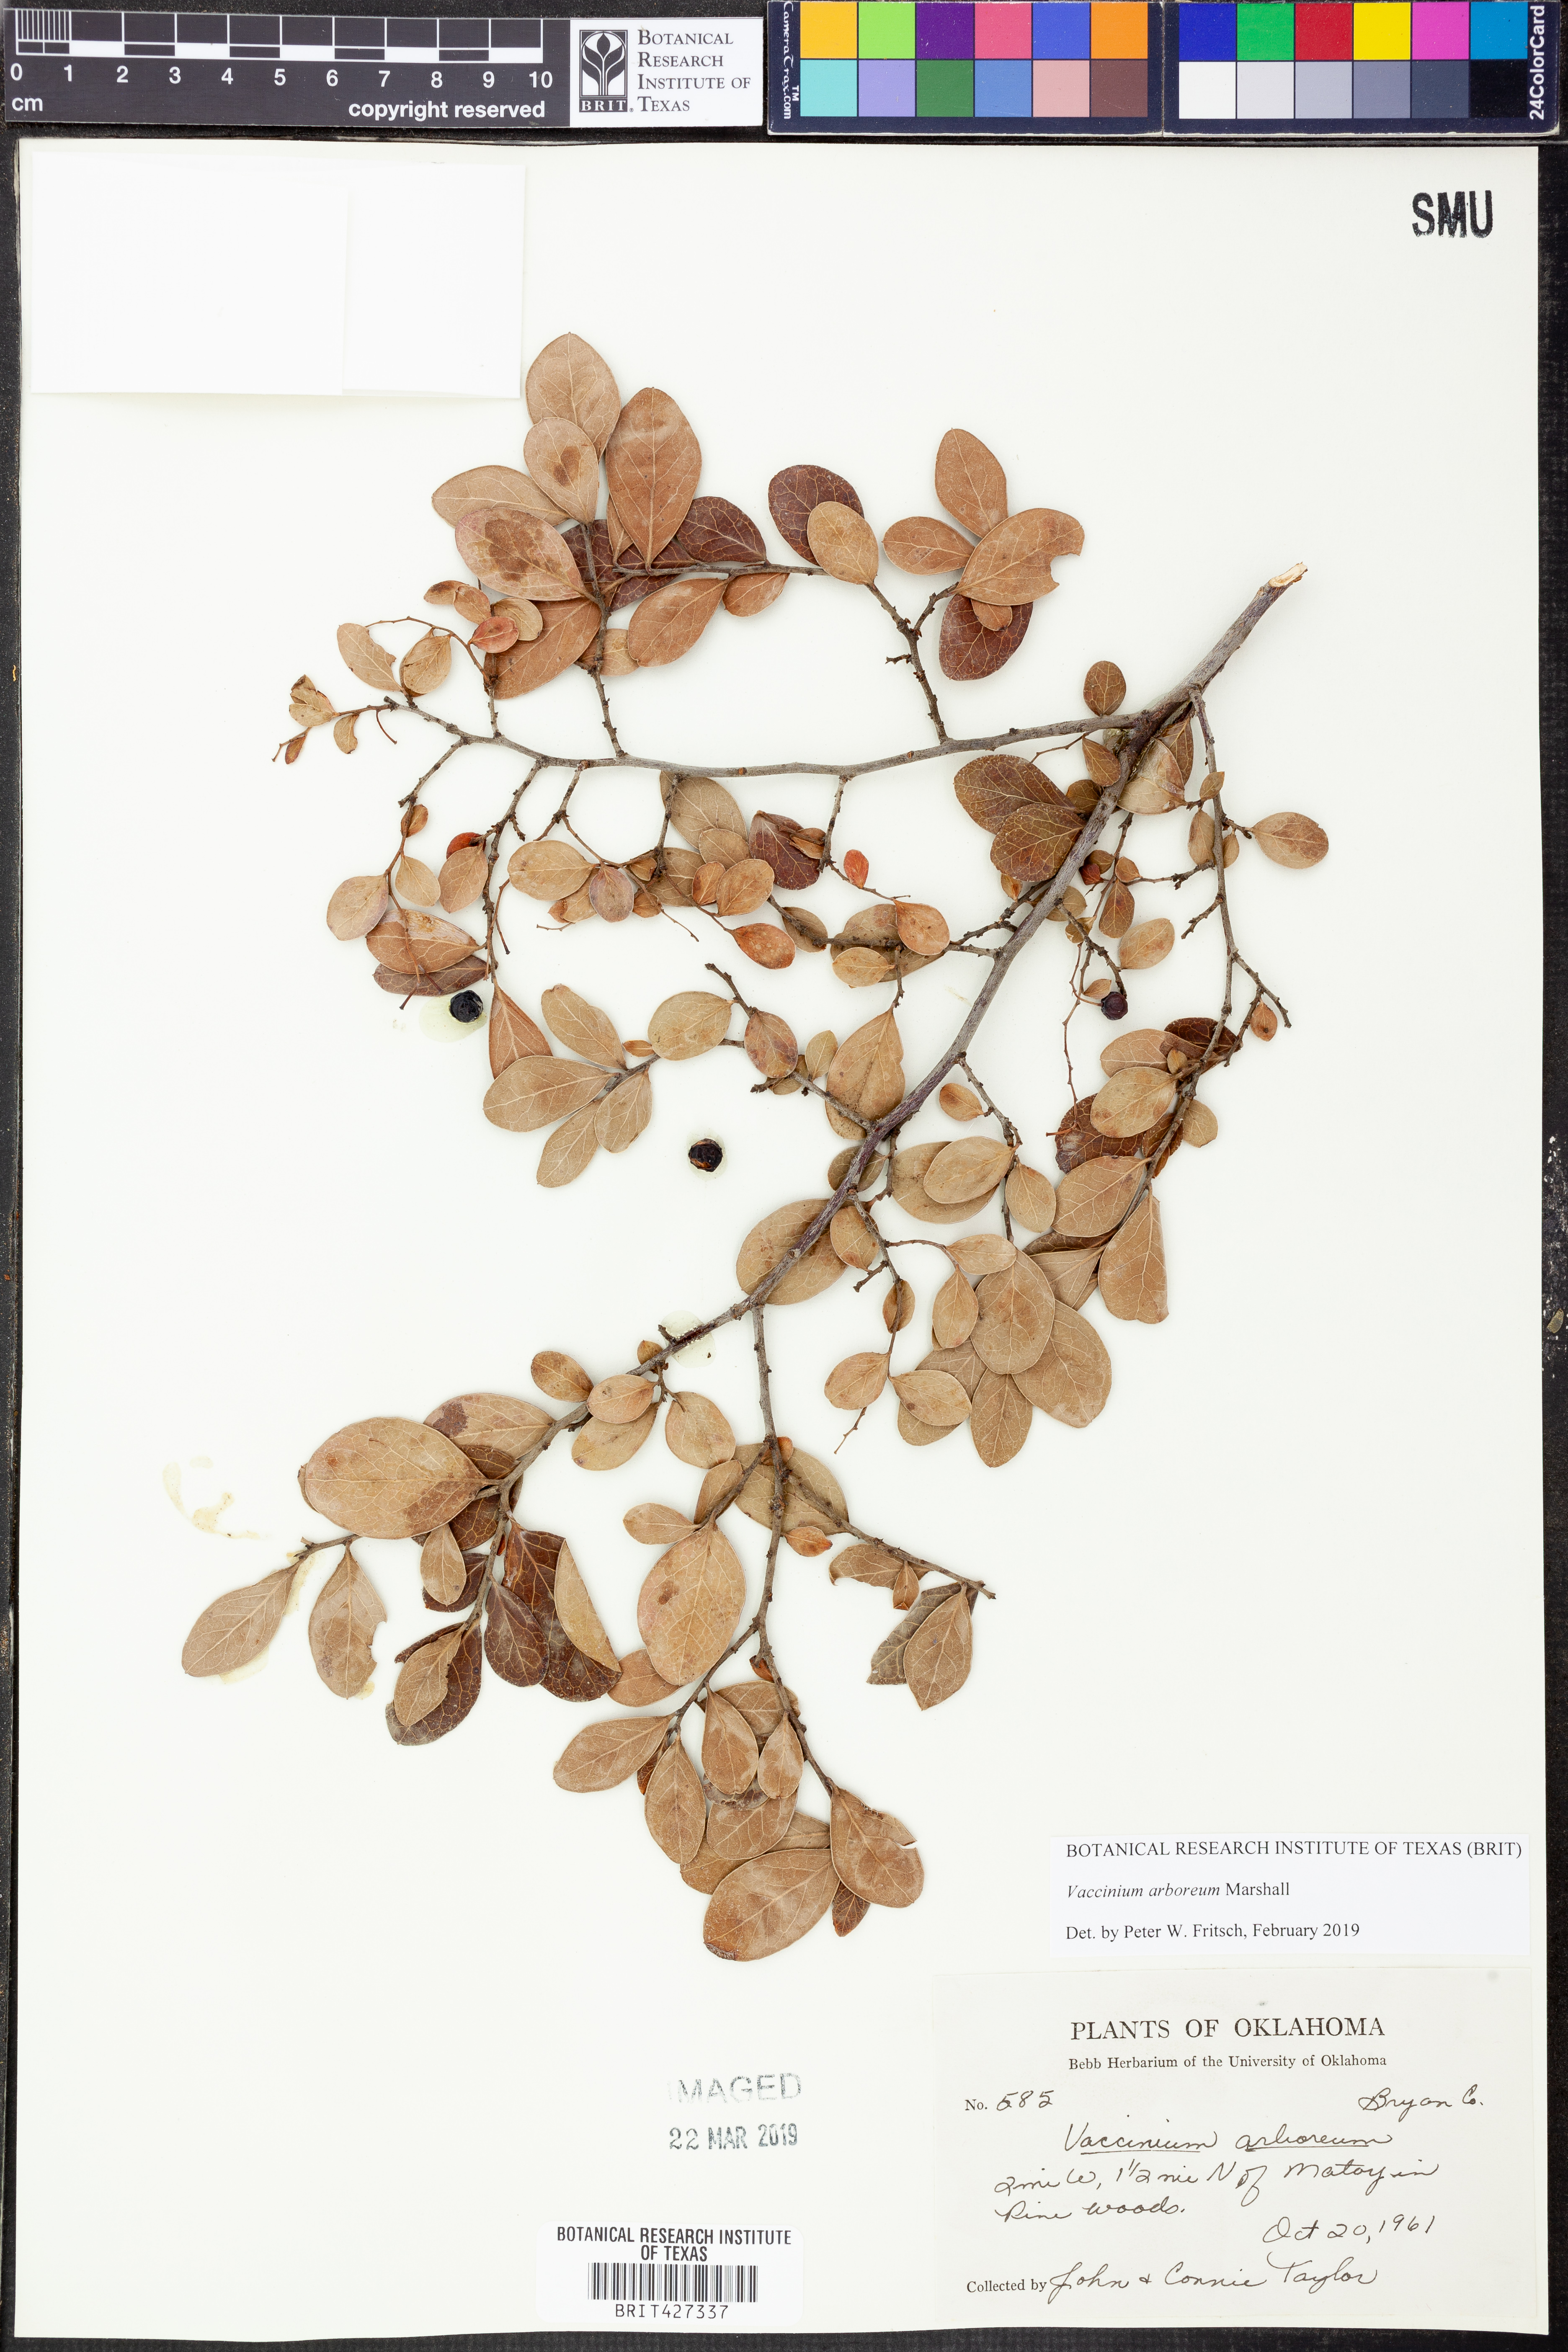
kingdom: Plantae
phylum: Tracheophyta
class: Magnoliopsida
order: Ericales
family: Ericaceae
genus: Vaccinium
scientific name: Vaccinium arboreum
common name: Farkleberry
